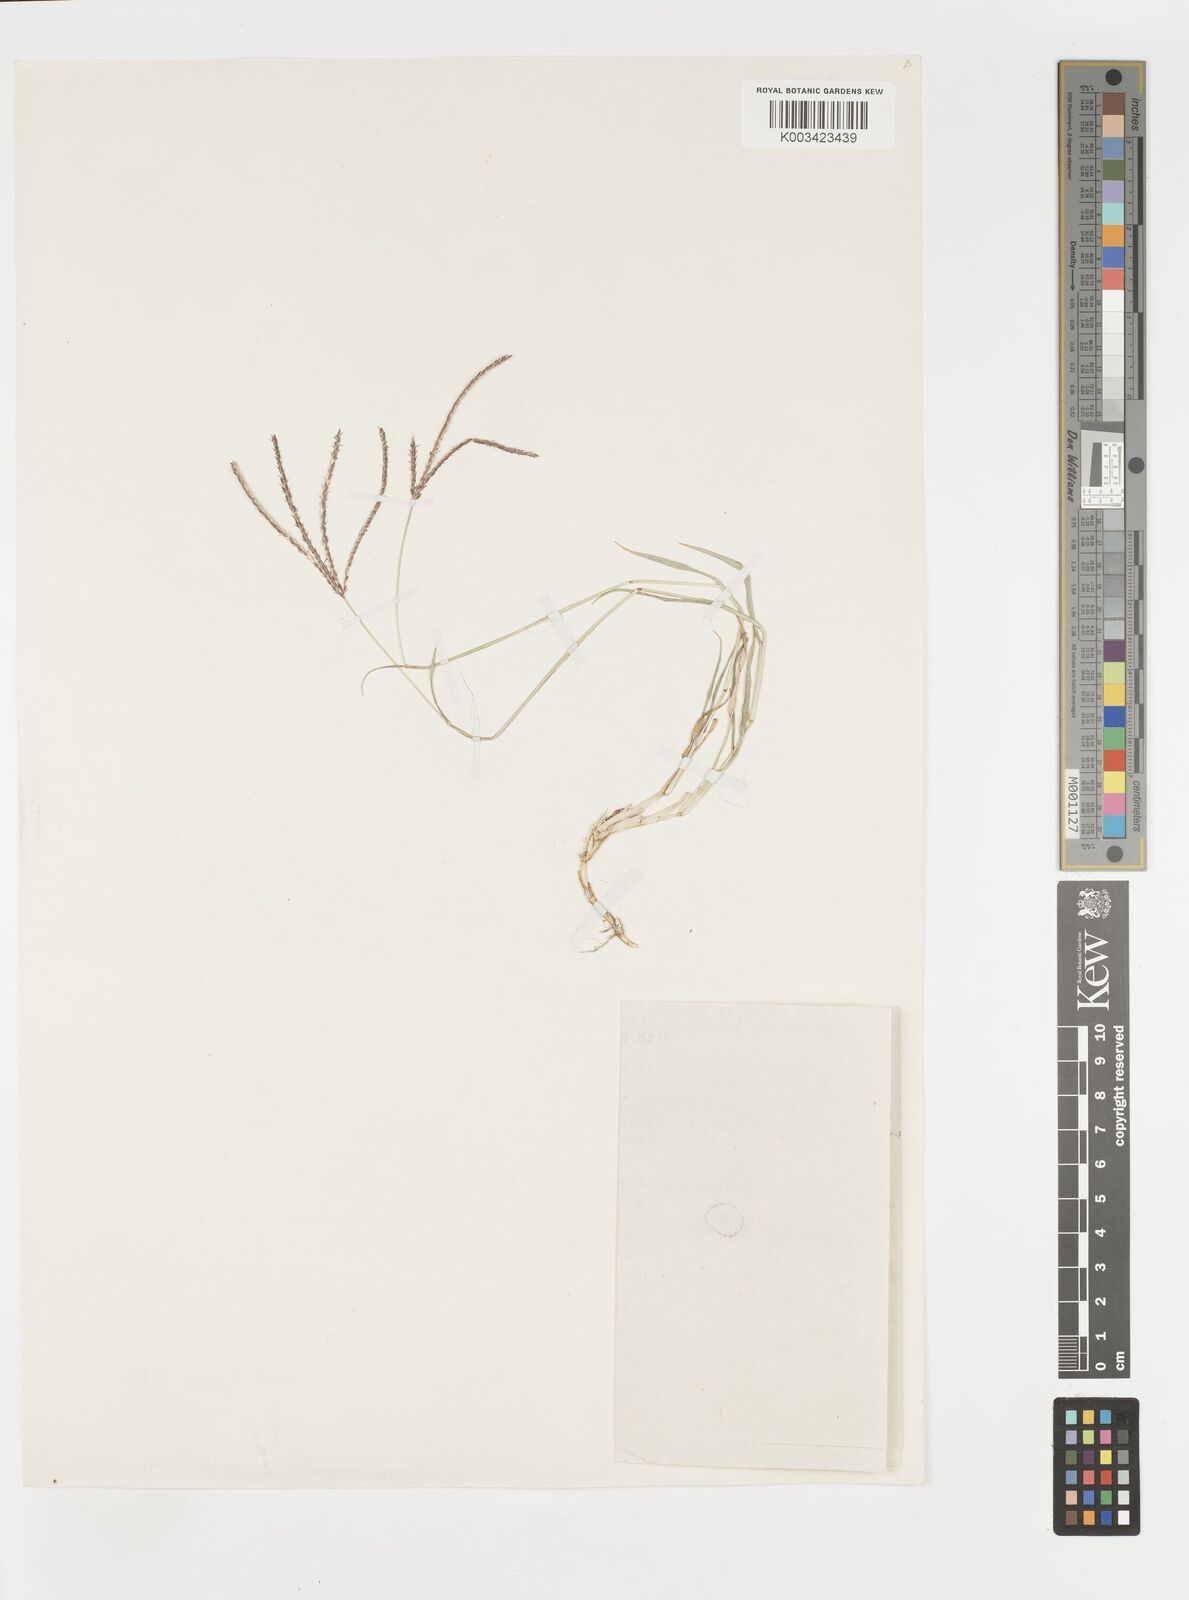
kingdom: Plantae
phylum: Tracheophyta
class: Liliopsida
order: Poales
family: Poaceae
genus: Cynodon
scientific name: Cynodon dactylon
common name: Bermuda grass
